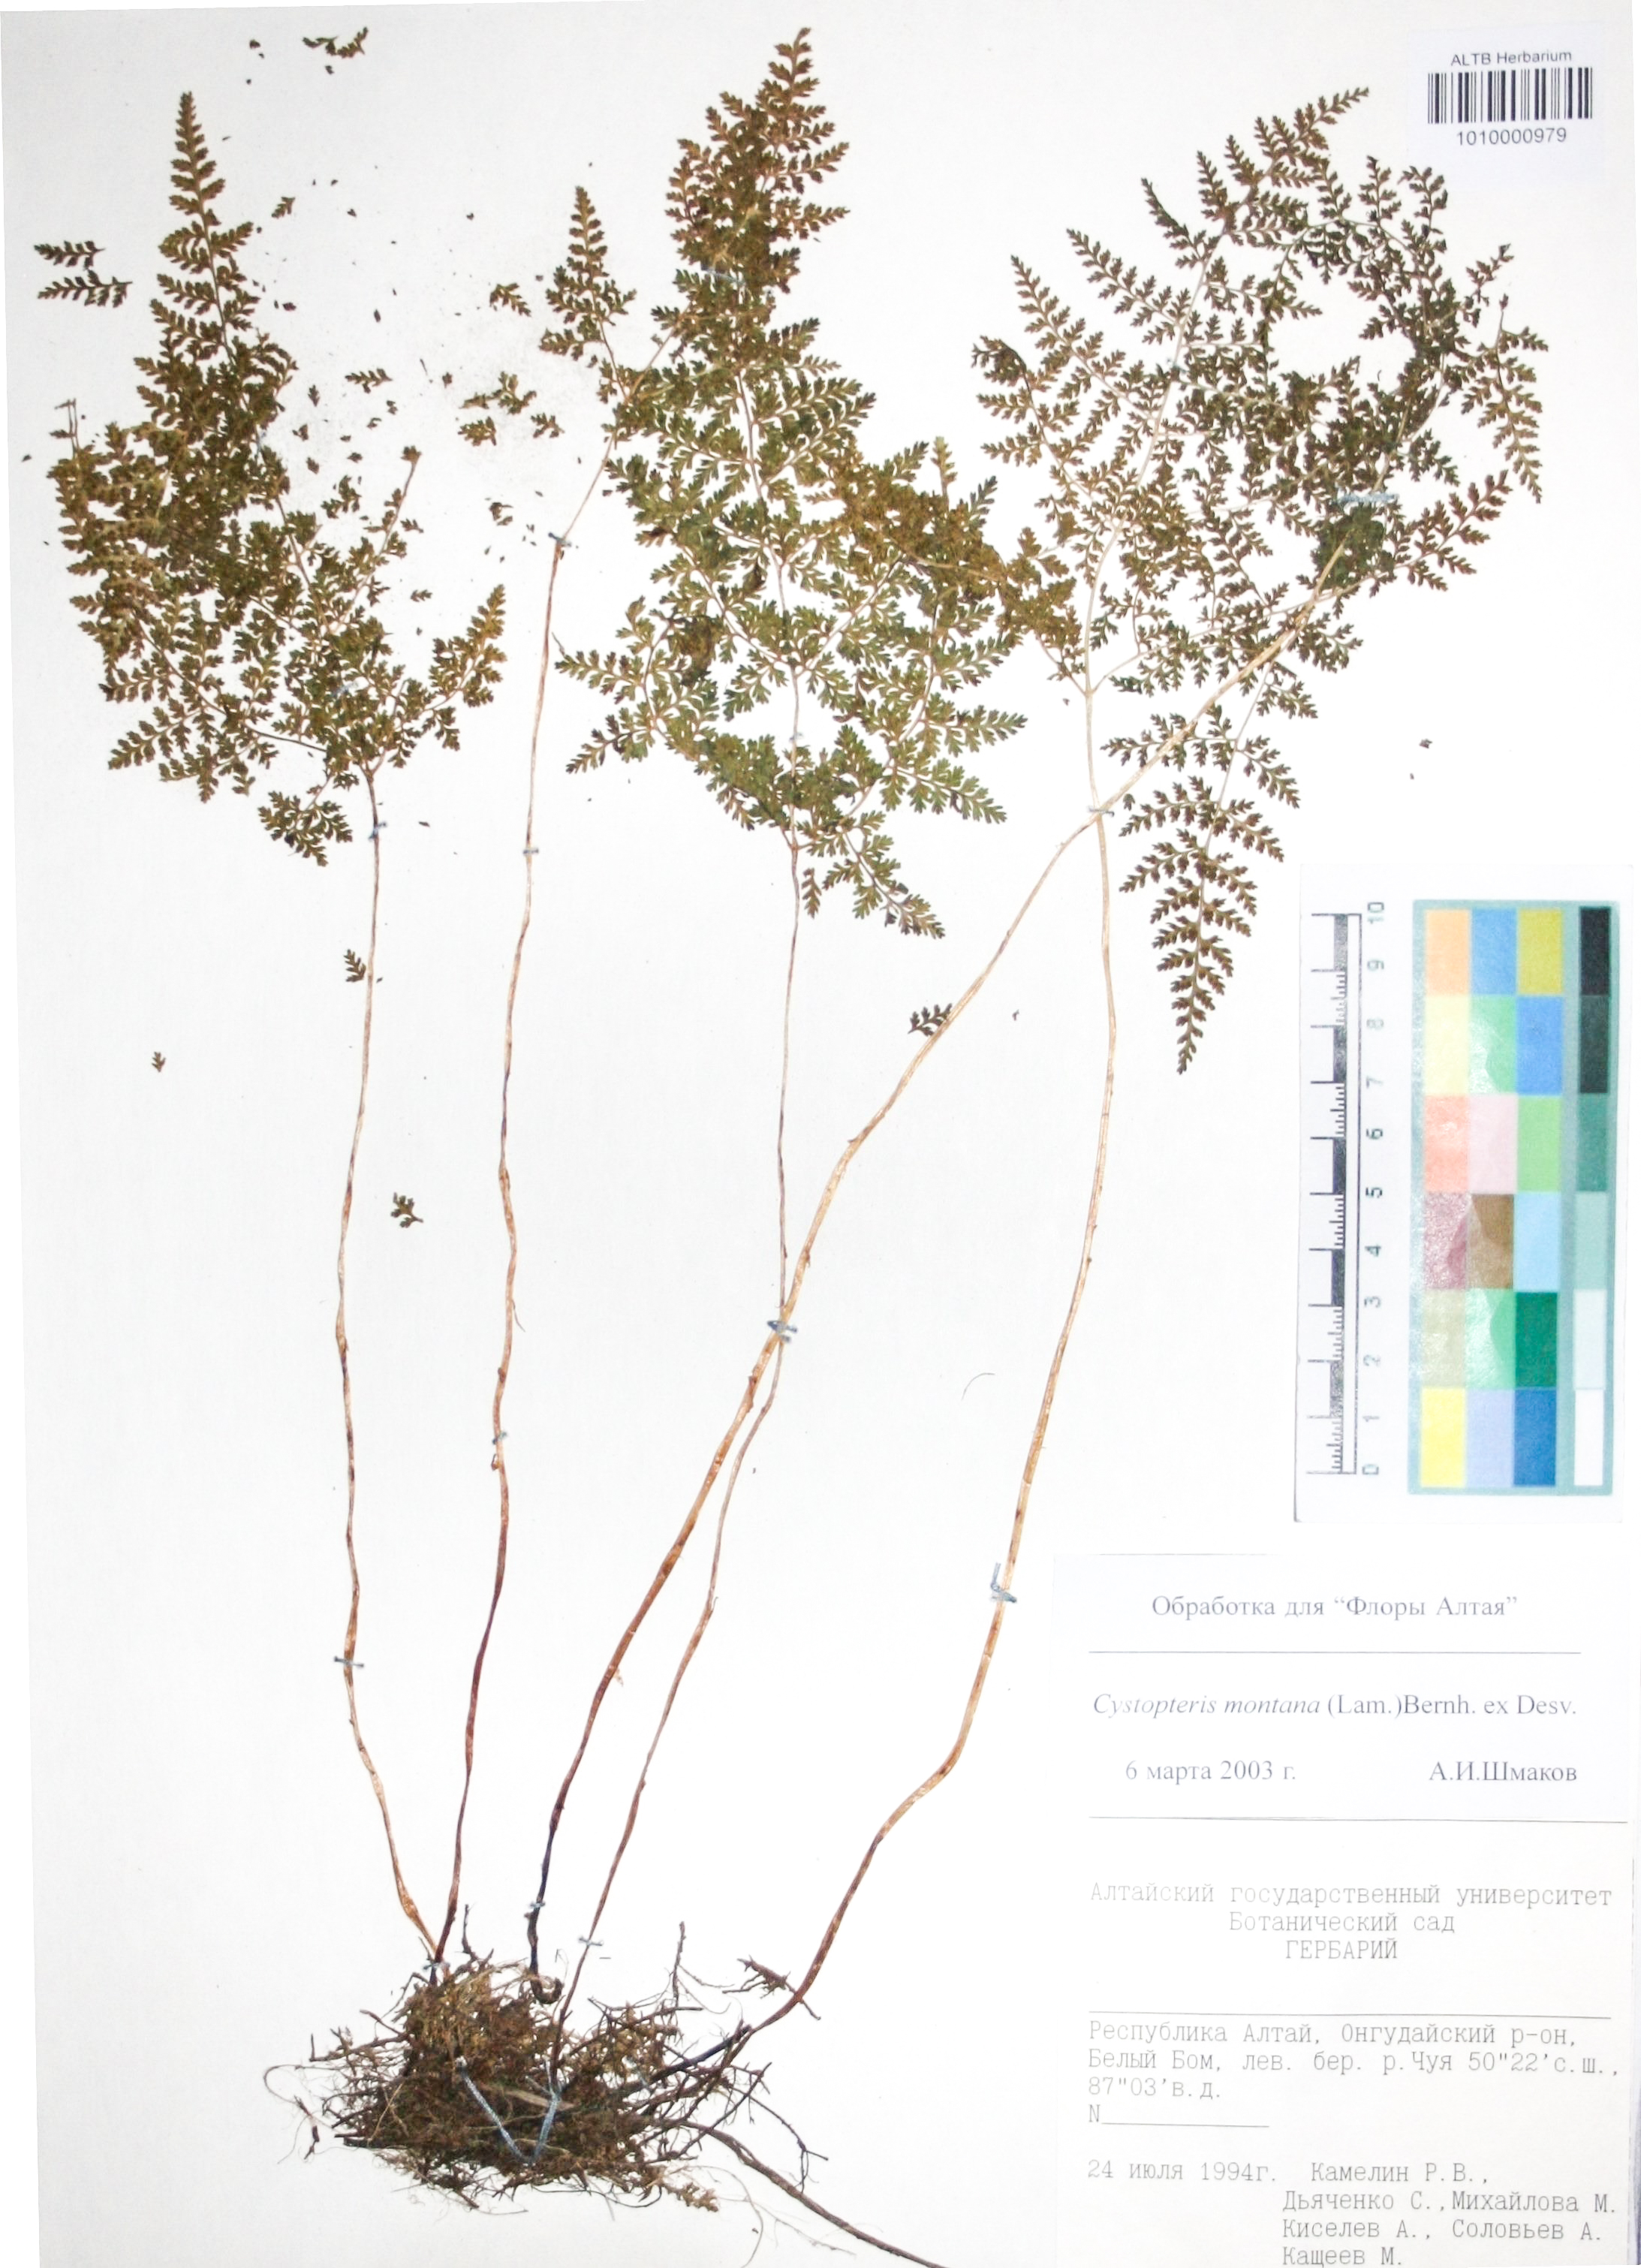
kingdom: Plantae
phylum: Tracheophyta
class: Polypodiopsida
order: Polypodiales
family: Cystopteridaceae
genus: Cystopteris
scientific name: Cystopteris montana
